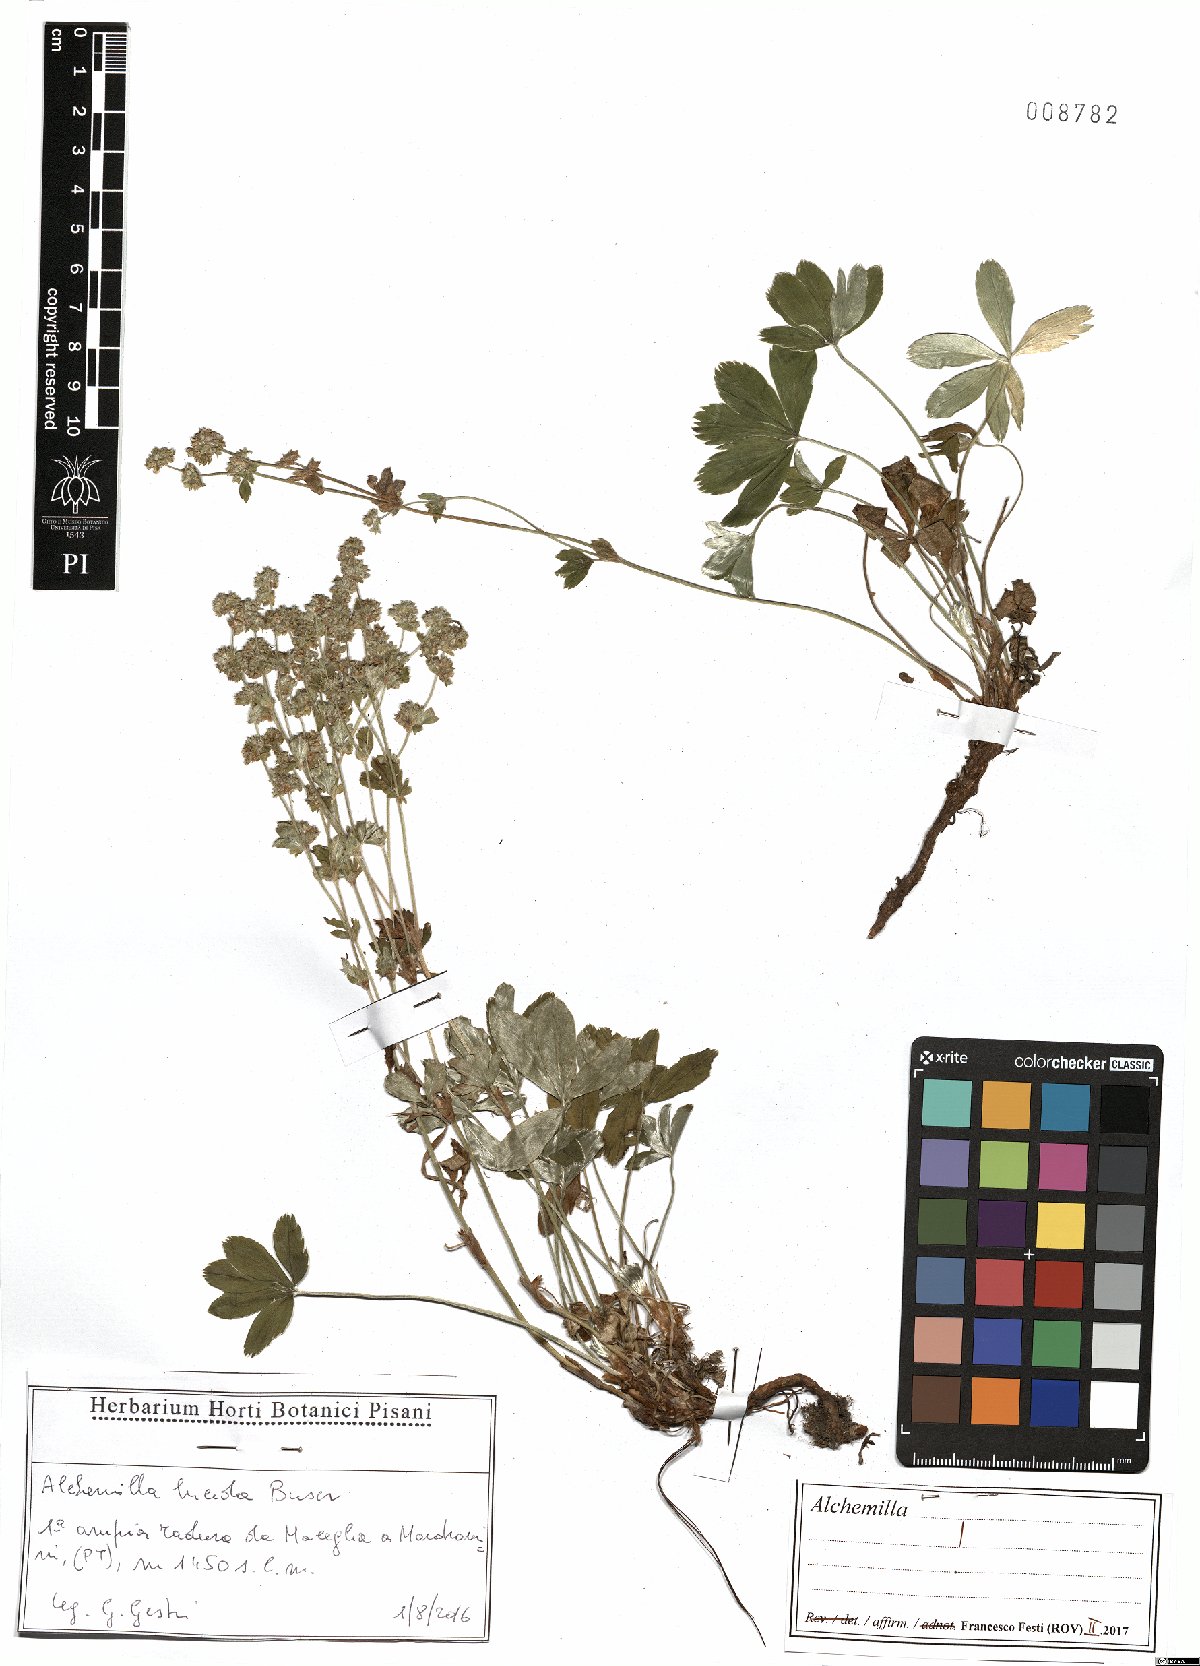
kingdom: Plantae
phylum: Tracheophyta
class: Magnoliopsida
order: Rosales
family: Rosaceae
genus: Alchemilla
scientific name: Alchemilla lucida
